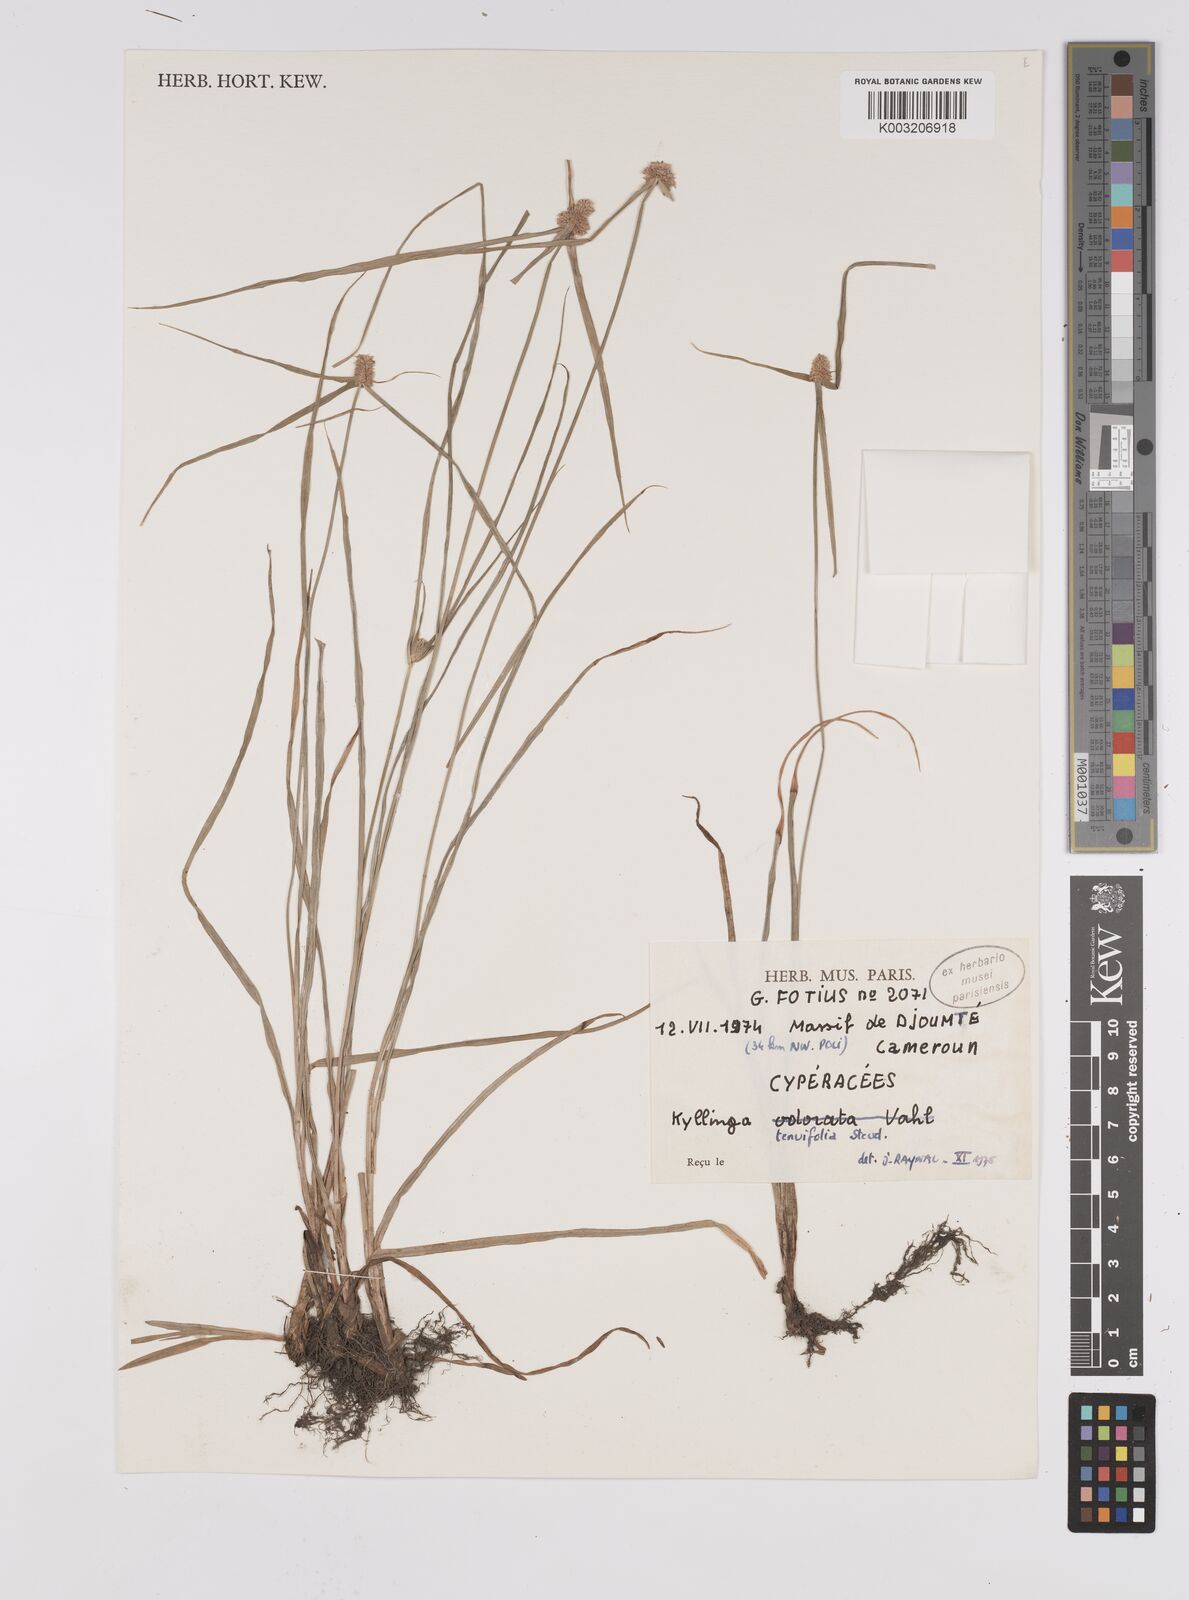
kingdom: Plantae
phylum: Tracheophyta
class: Liliopsida
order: Poales
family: Cyperaceae
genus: Cyperus
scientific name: Cyperus hortensis
